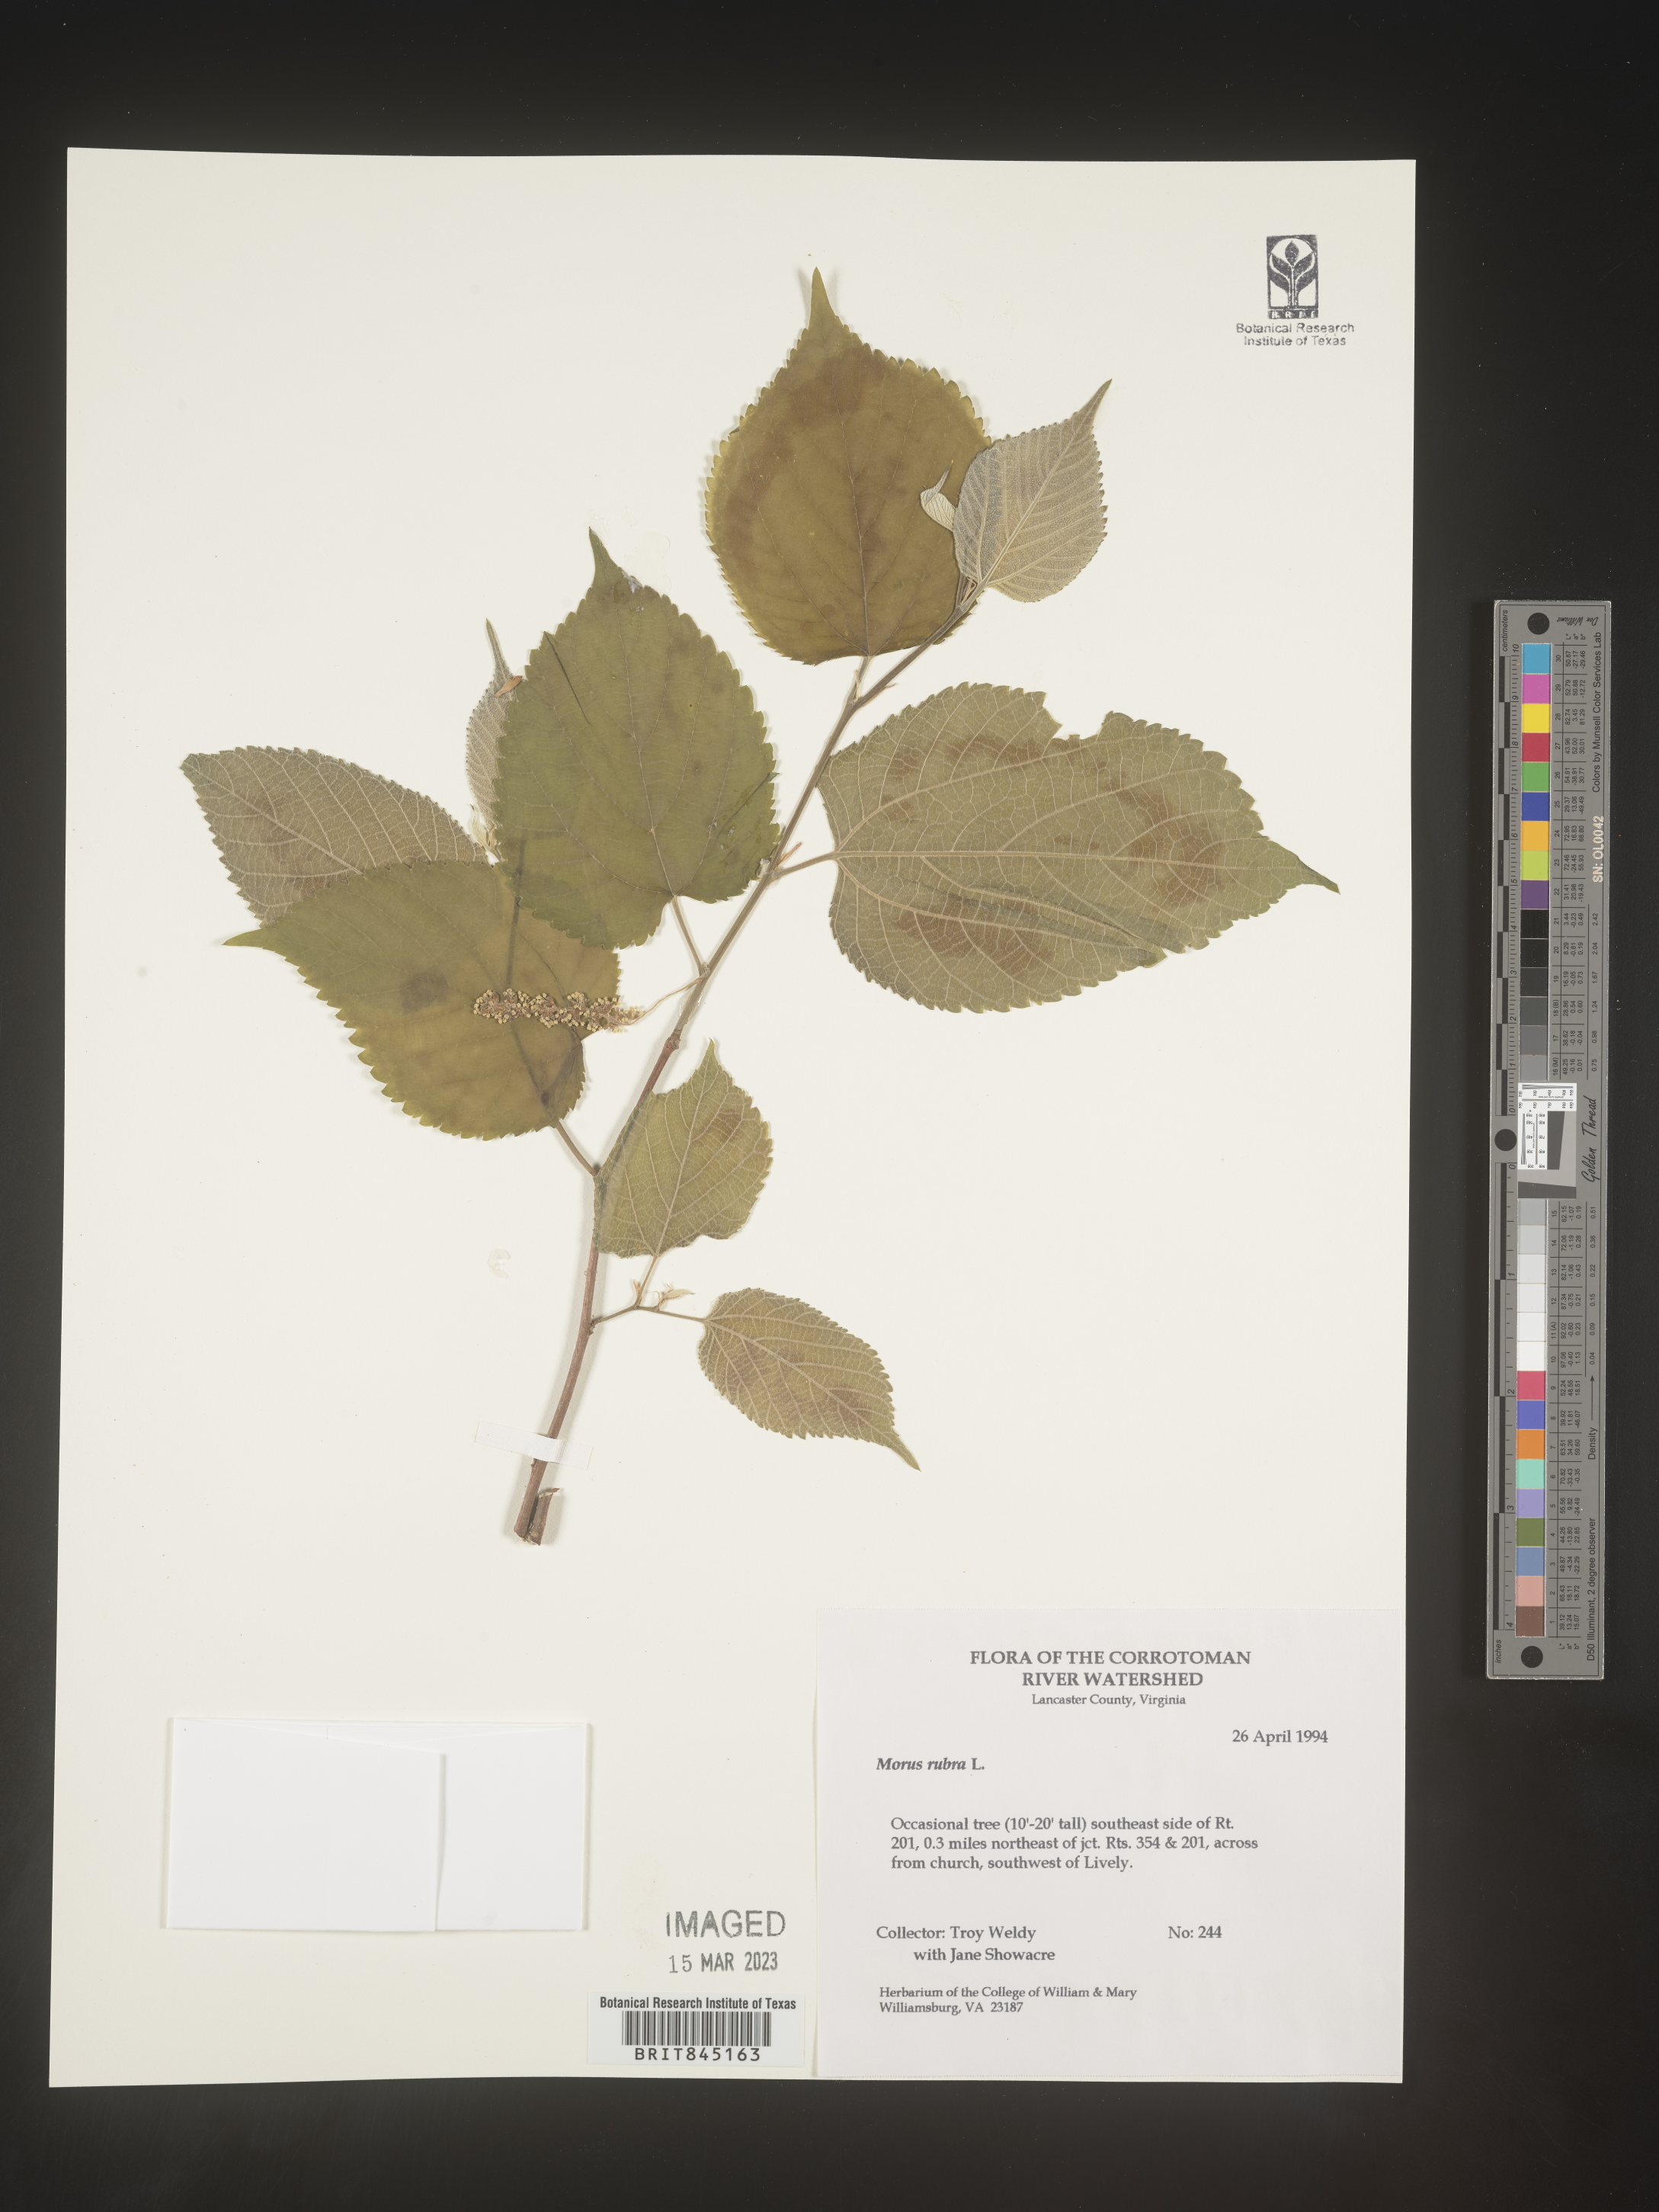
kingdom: Plantae
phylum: Tracheophyta
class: Magnoliopsida
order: Rosales
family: Moraceae
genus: Morus
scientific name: Morus rubra
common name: Red mulberry
